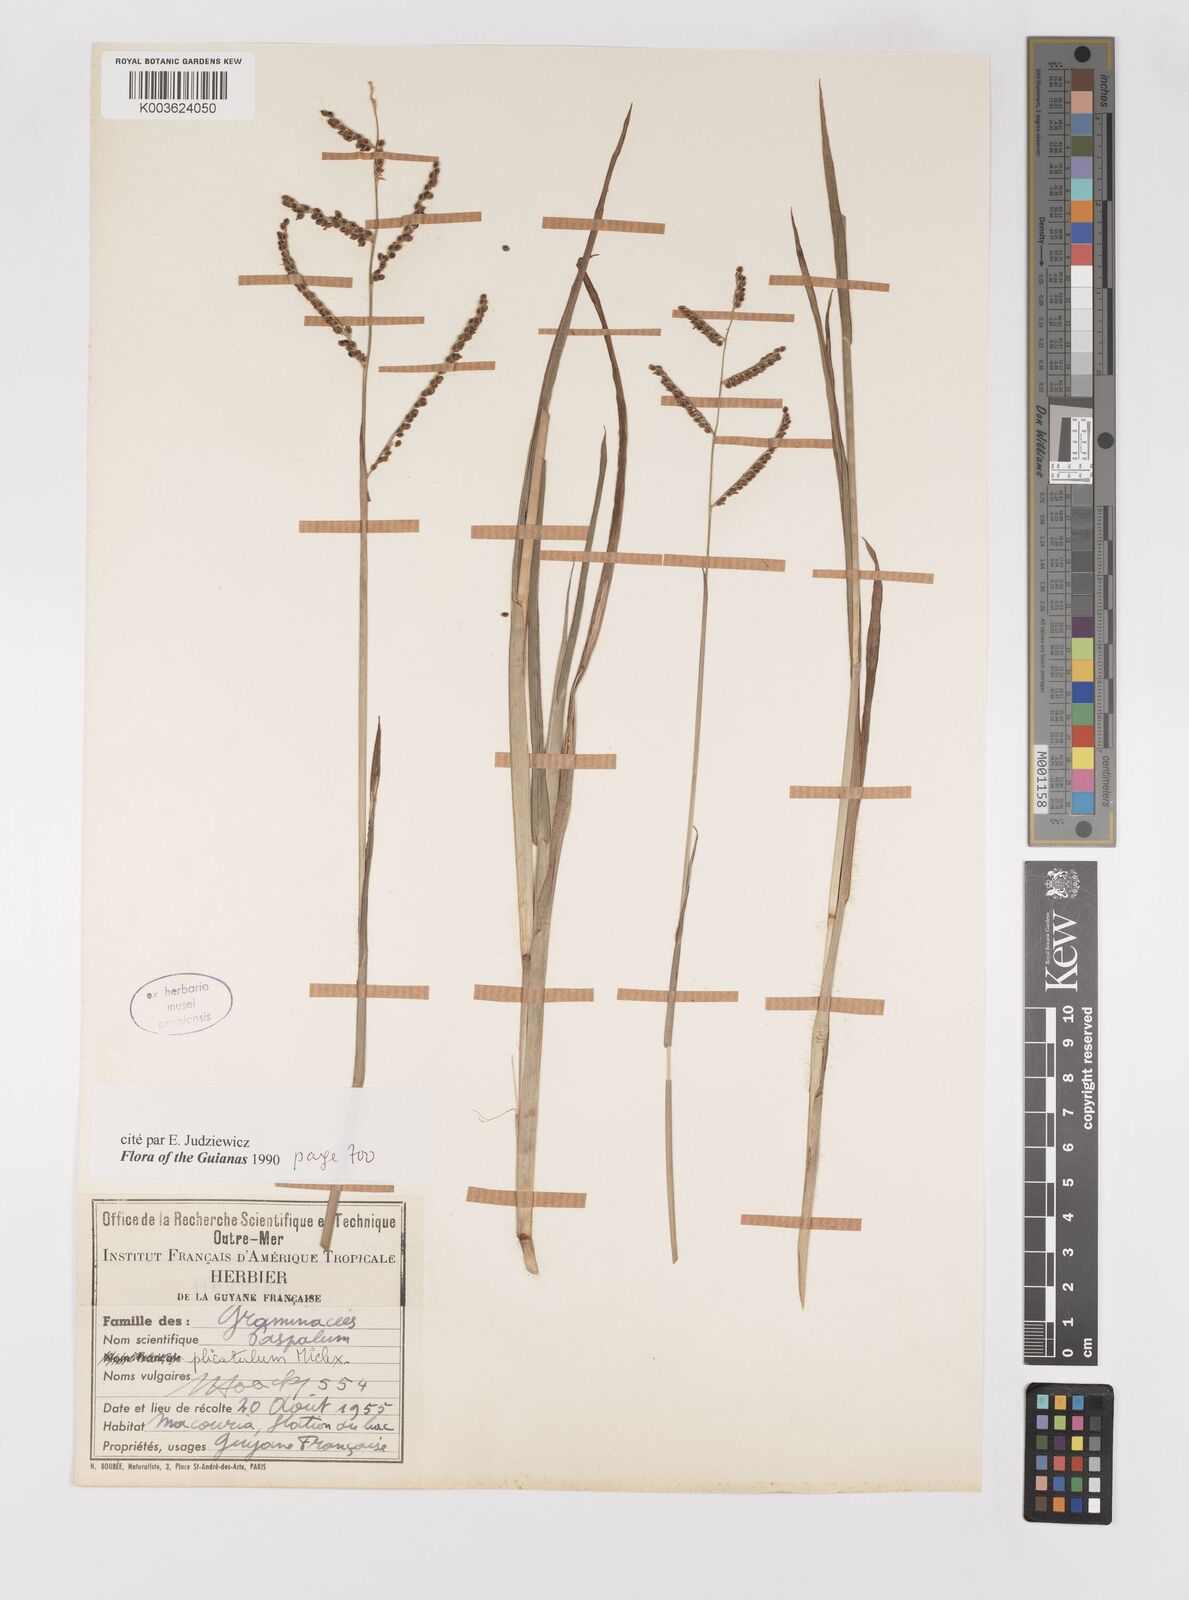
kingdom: Plantae
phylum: Tracheophyta
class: Liliopsida
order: Poales
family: Poaceae
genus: Paspalum
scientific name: Paspalum plicatulum
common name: Top paspalum
